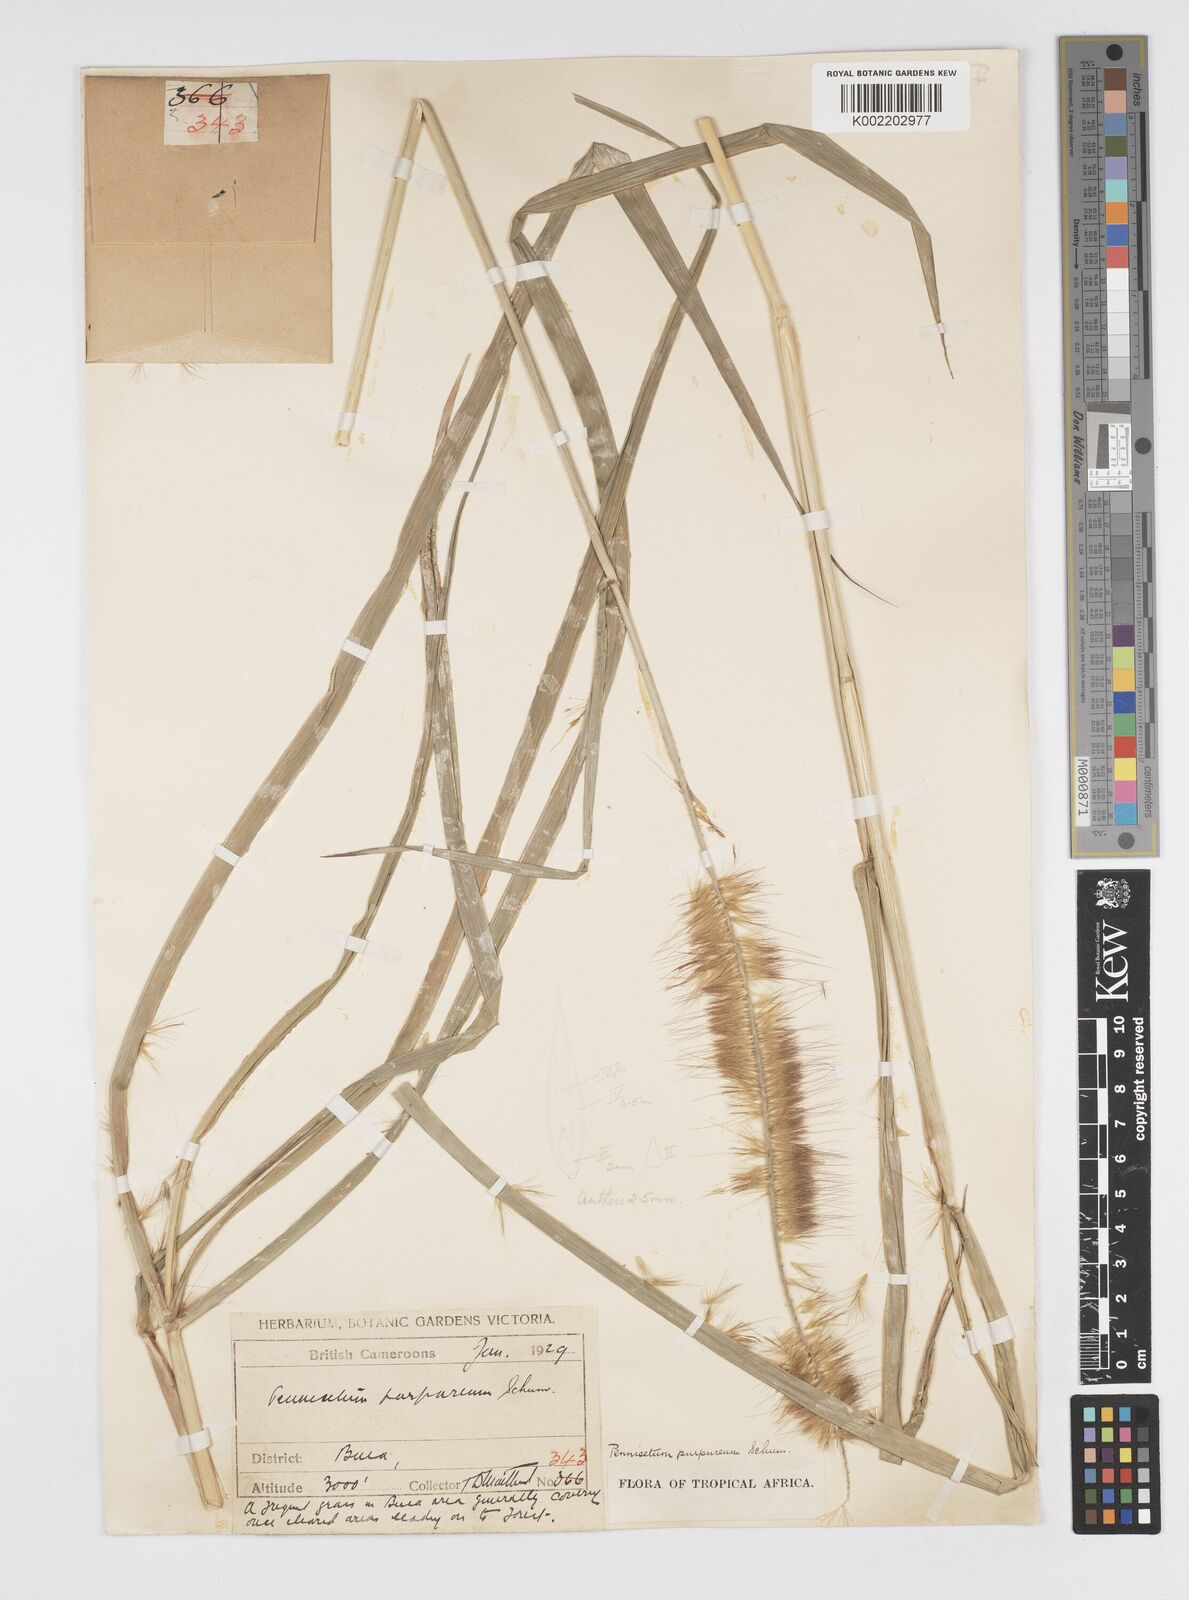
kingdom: Plantae
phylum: Tracheophyta
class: Liliopsida
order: Poales
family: Poaceae
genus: Cenchrus
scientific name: Cenchrus purpureus
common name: Elephant grass
